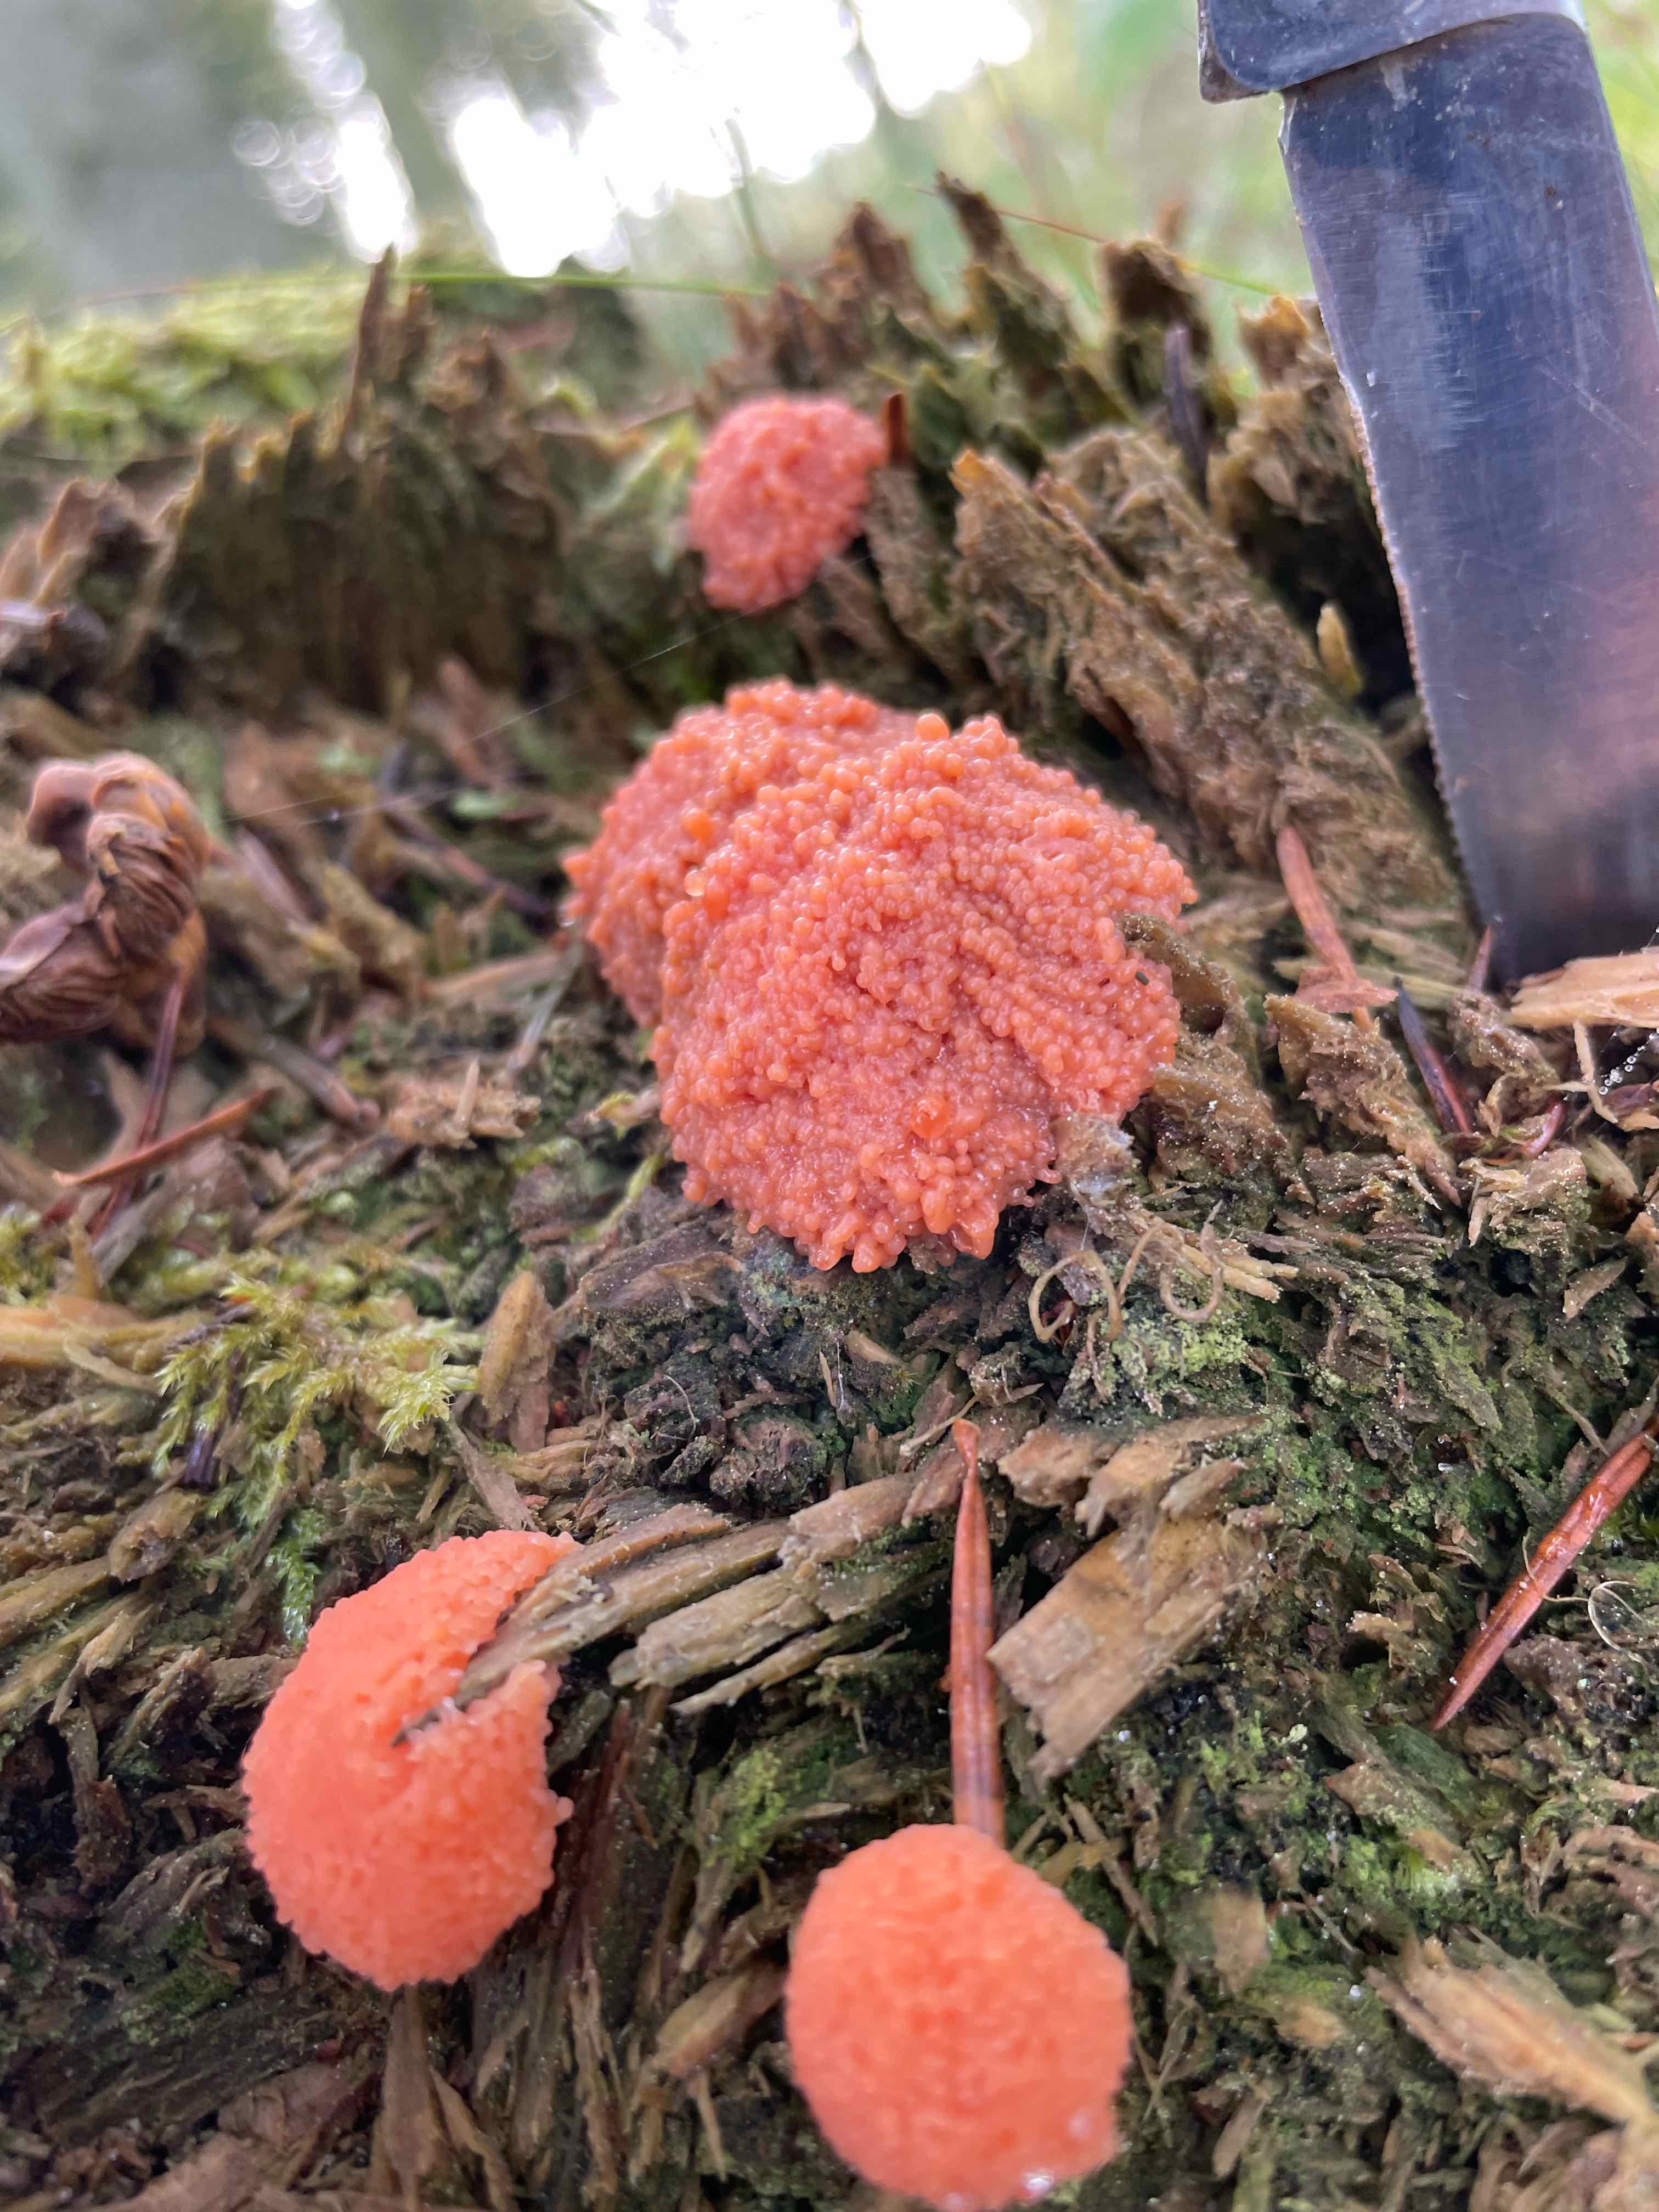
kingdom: Protozoa
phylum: Mycetozoa
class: Myxomycetes
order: Cribrariales
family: Tubiferaceae
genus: Tubifera
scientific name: Tubifera ferruginosa
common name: kanel-støvrør
